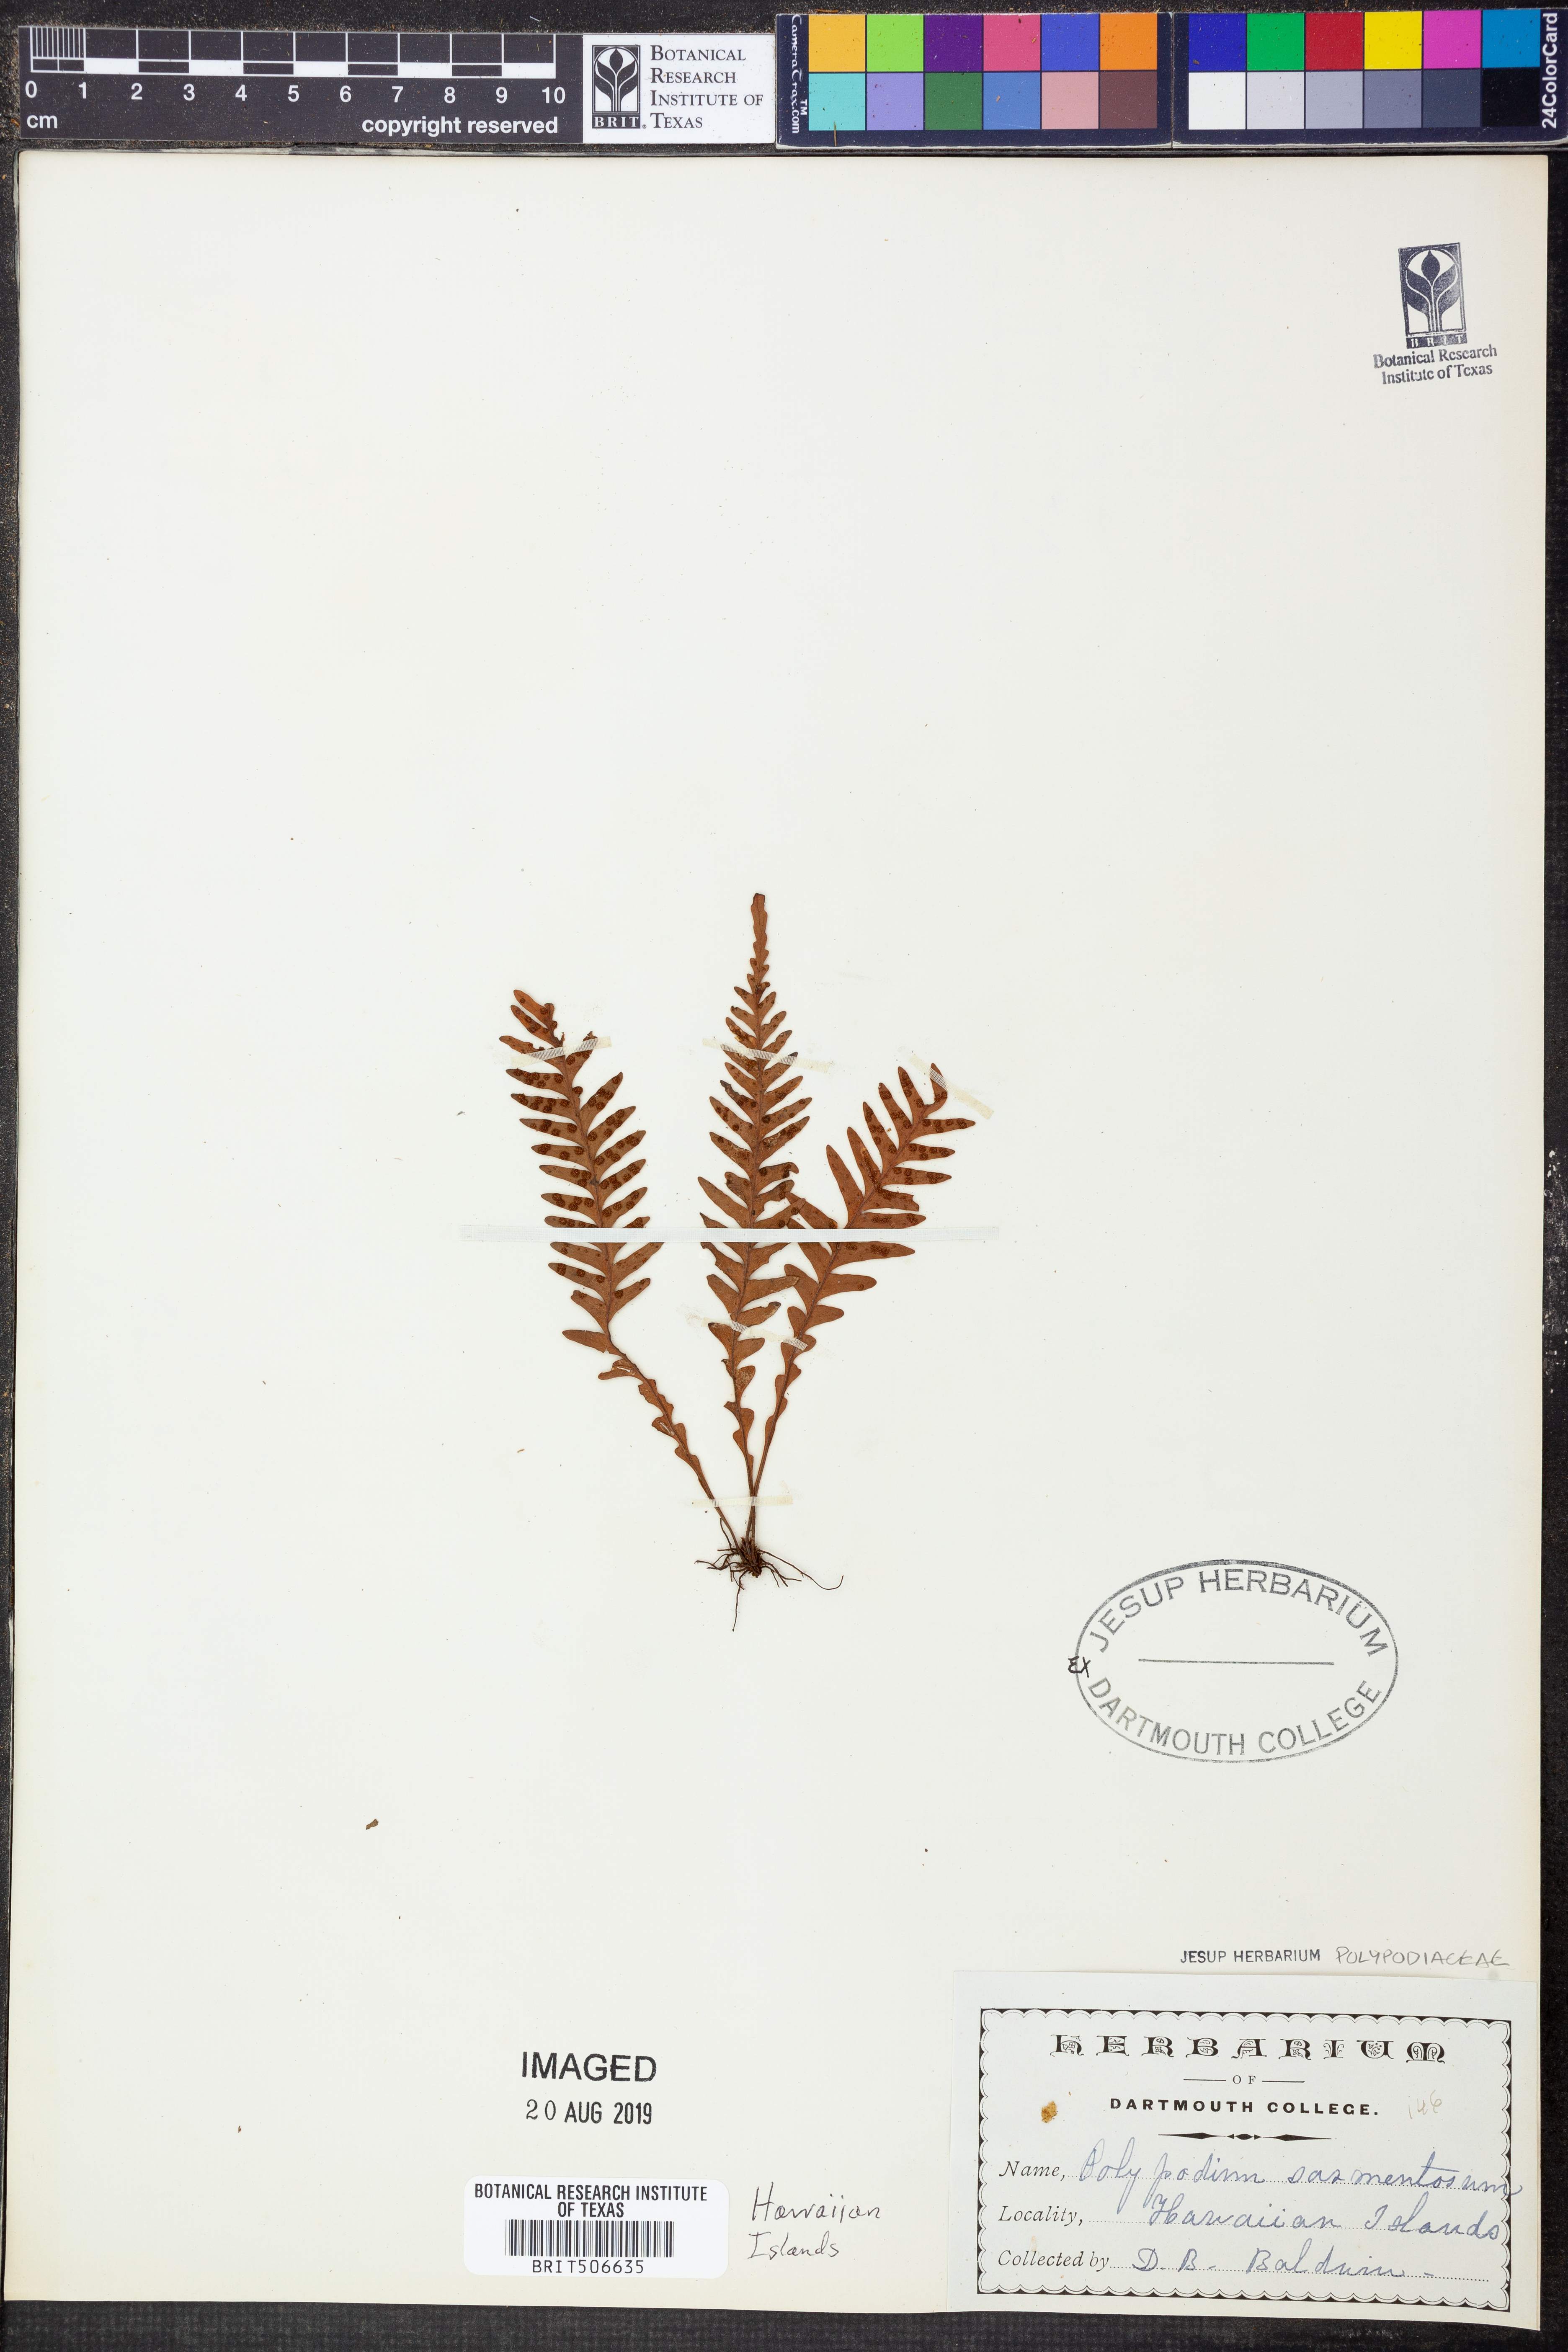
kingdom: Plantae
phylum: Tracheophyta
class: Polypodiopsida
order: Polypodiales
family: Polypodiaceae
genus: Adenophorus
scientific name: Adenophorus pinnatifidus
